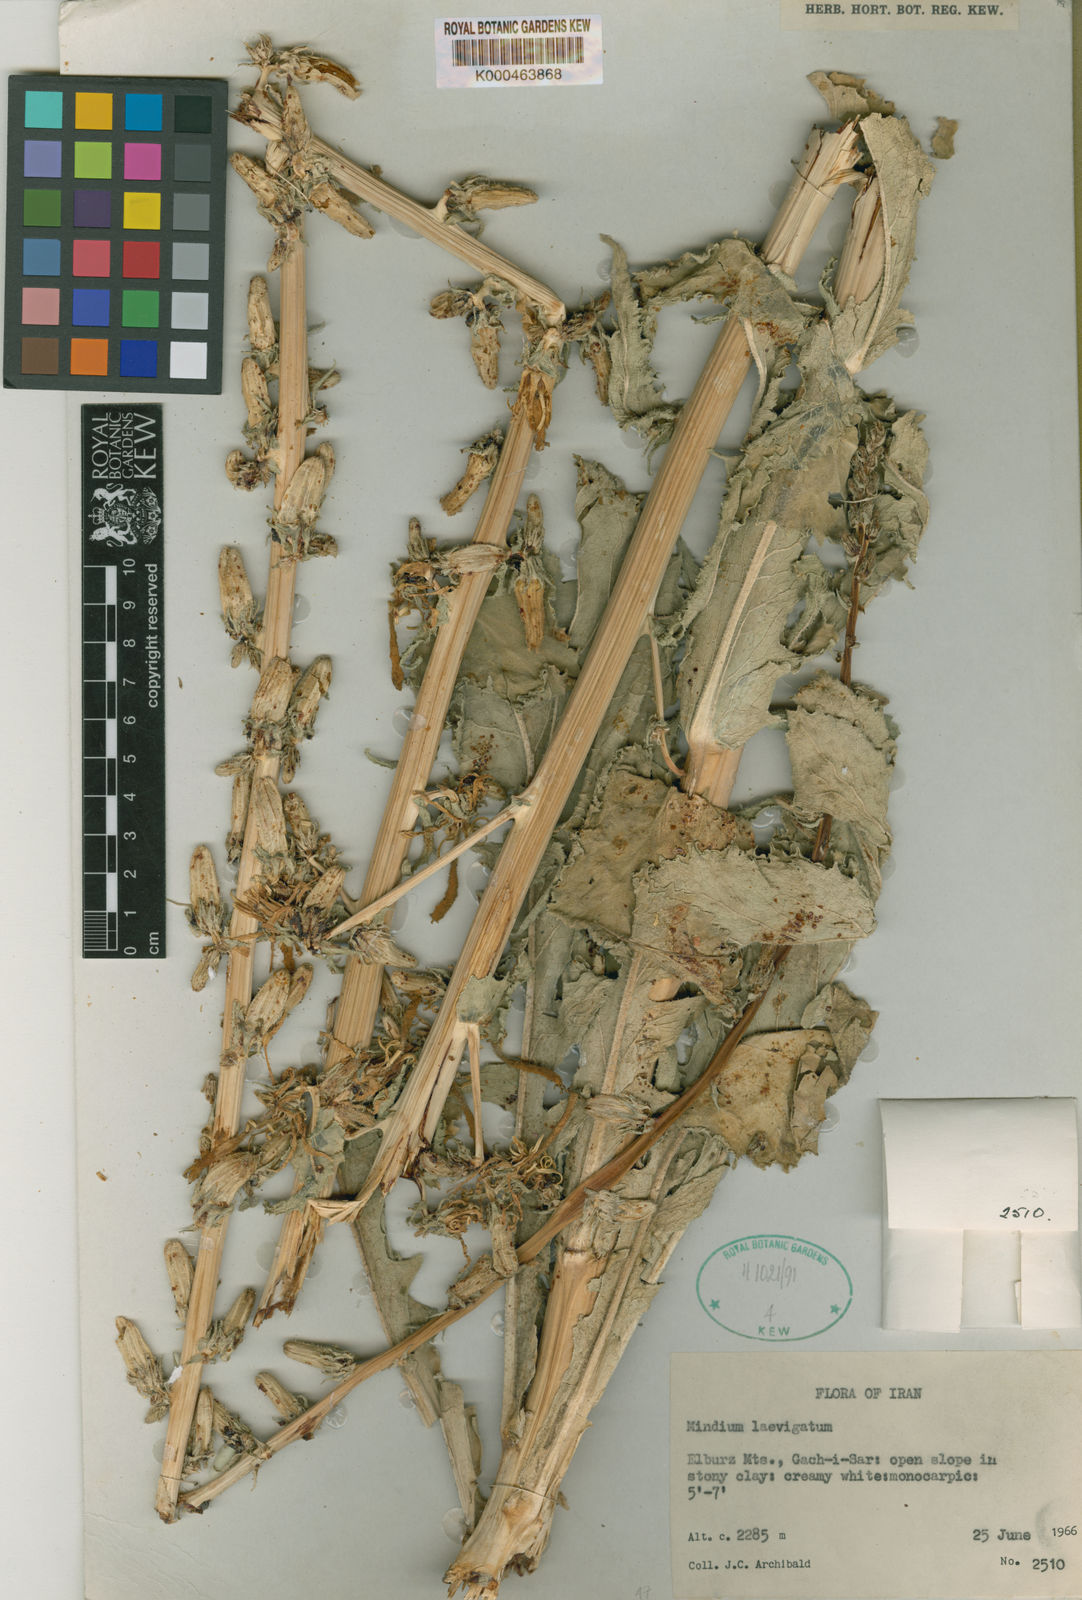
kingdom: Plantae
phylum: Tracheophyta
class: Magnoliopsida
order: Asterales
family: Campanulaceae
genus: Michauxia
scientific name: Michauxia laevigata
